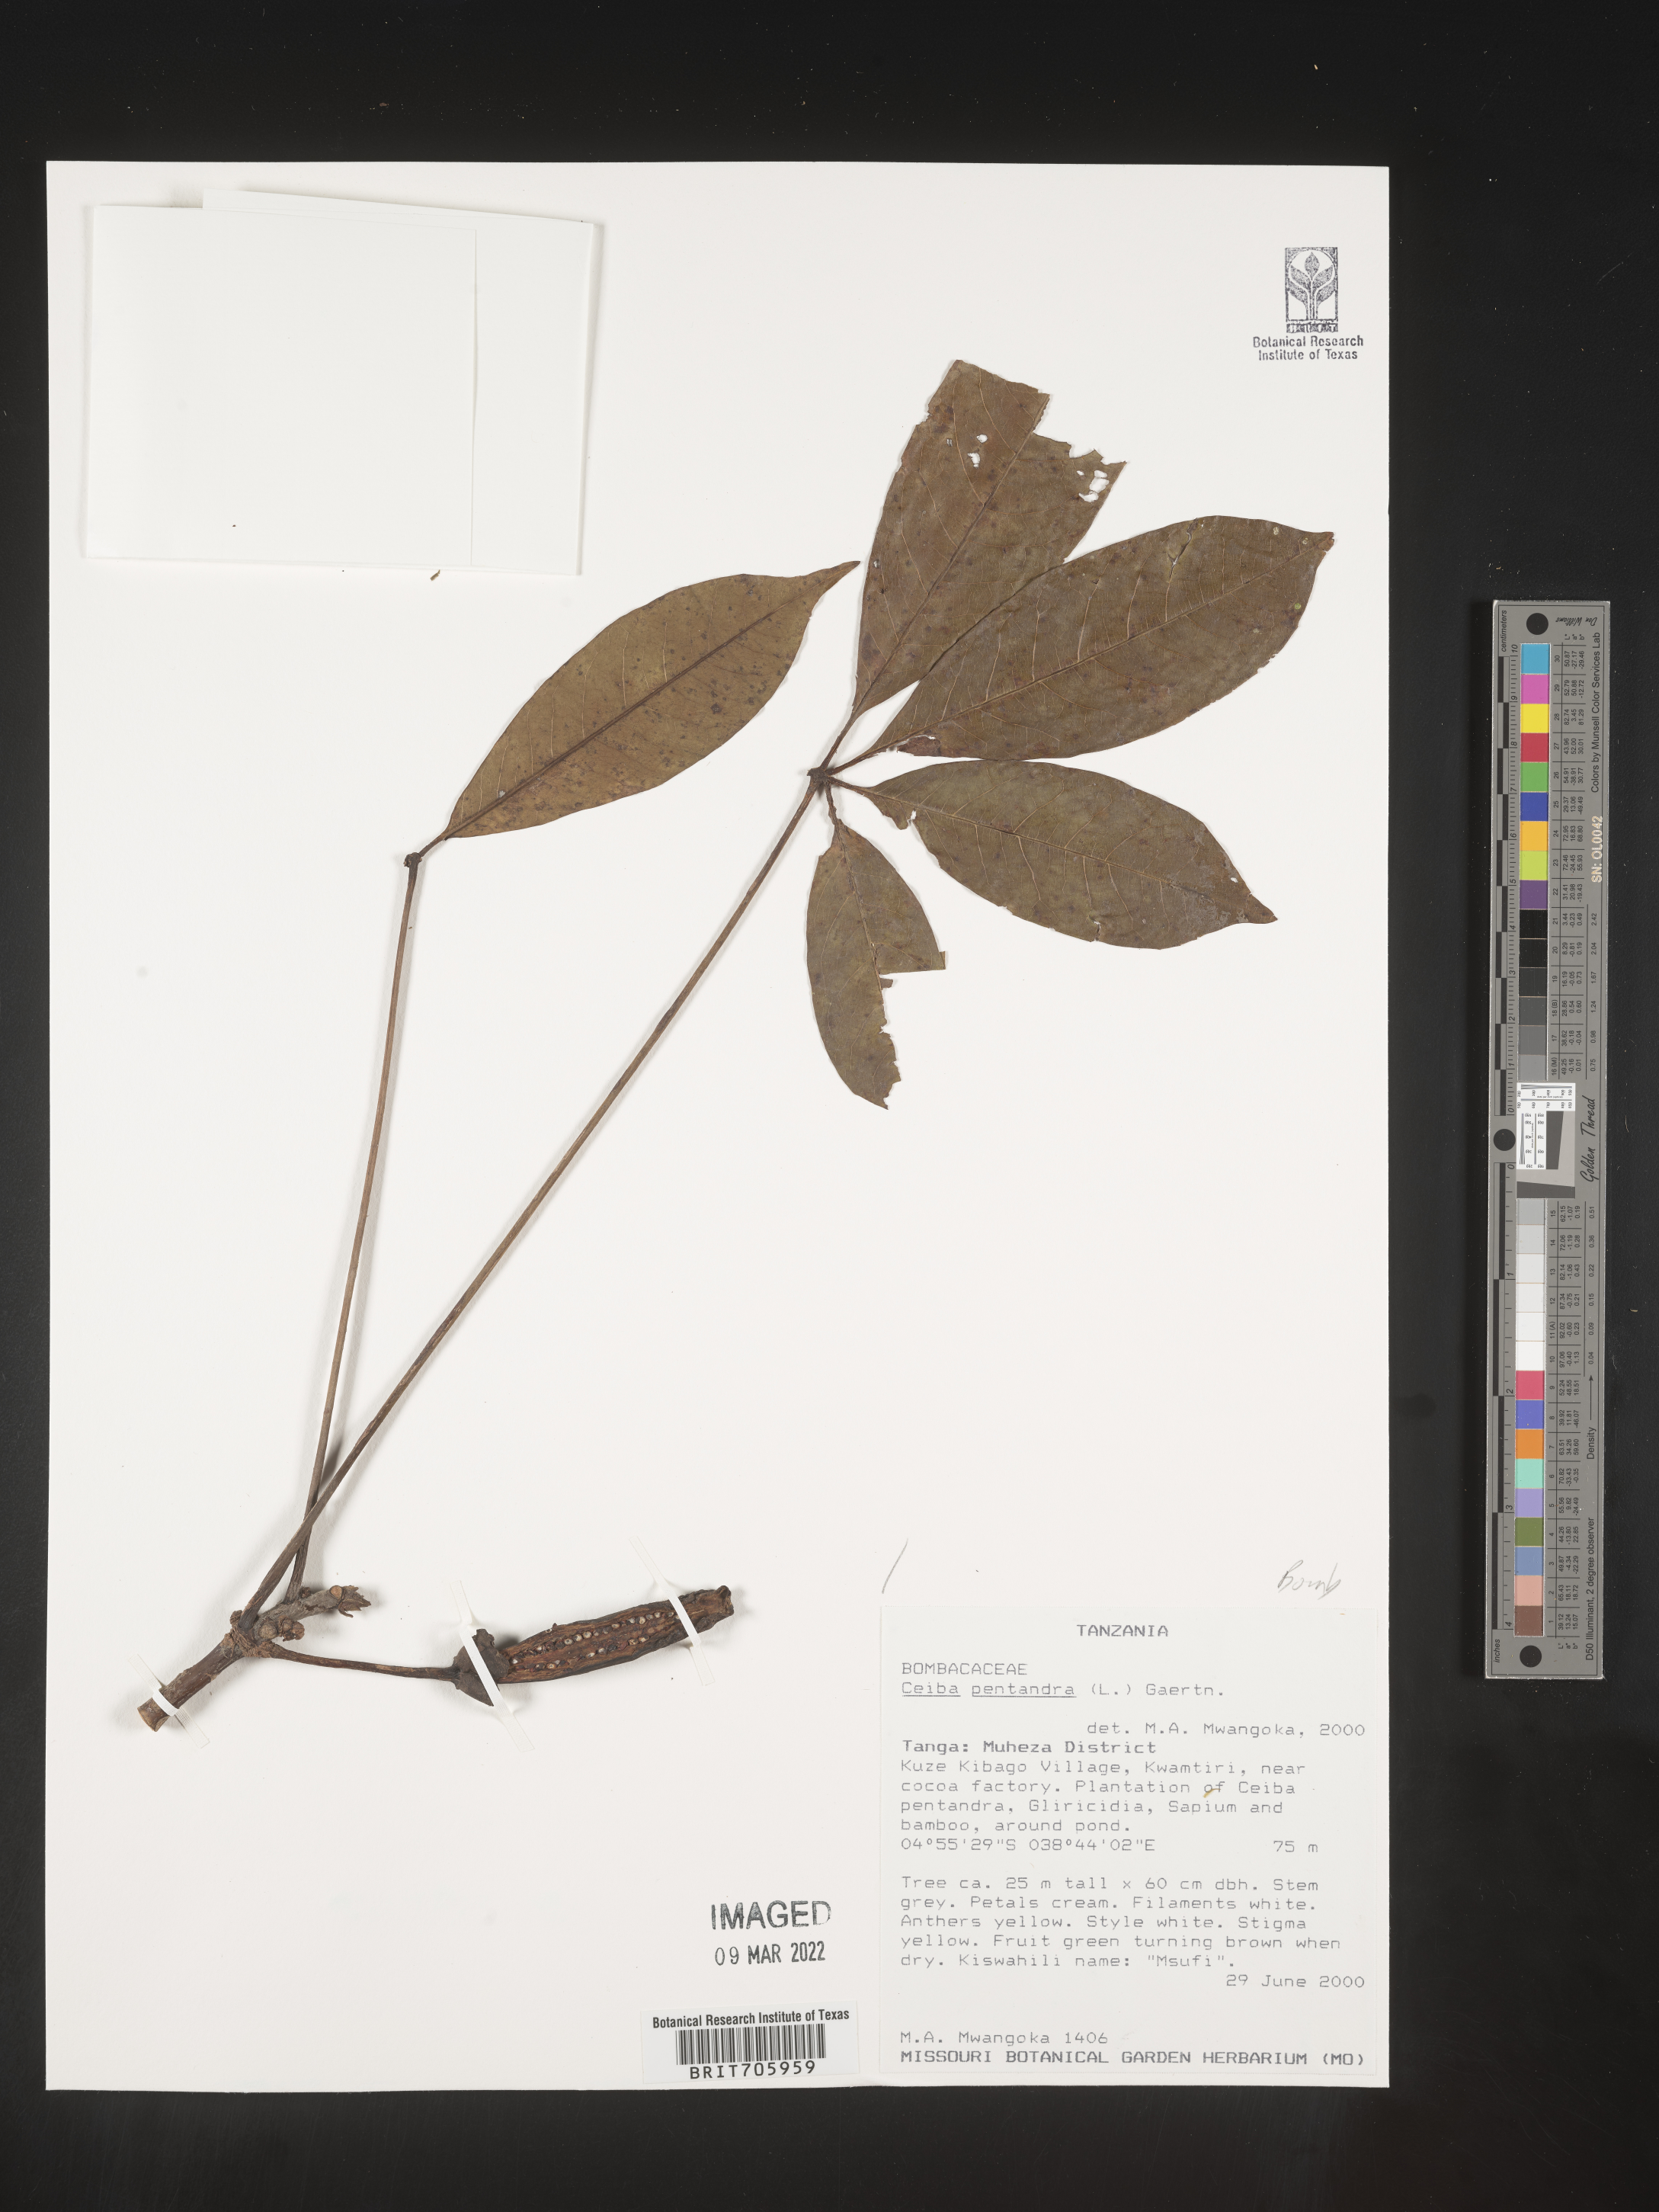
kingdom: Plantae
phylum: Tracheophyta
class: Magnoliopsida
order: Malvales
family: Malvaceae
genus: Ceiba
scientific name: Ceiba
